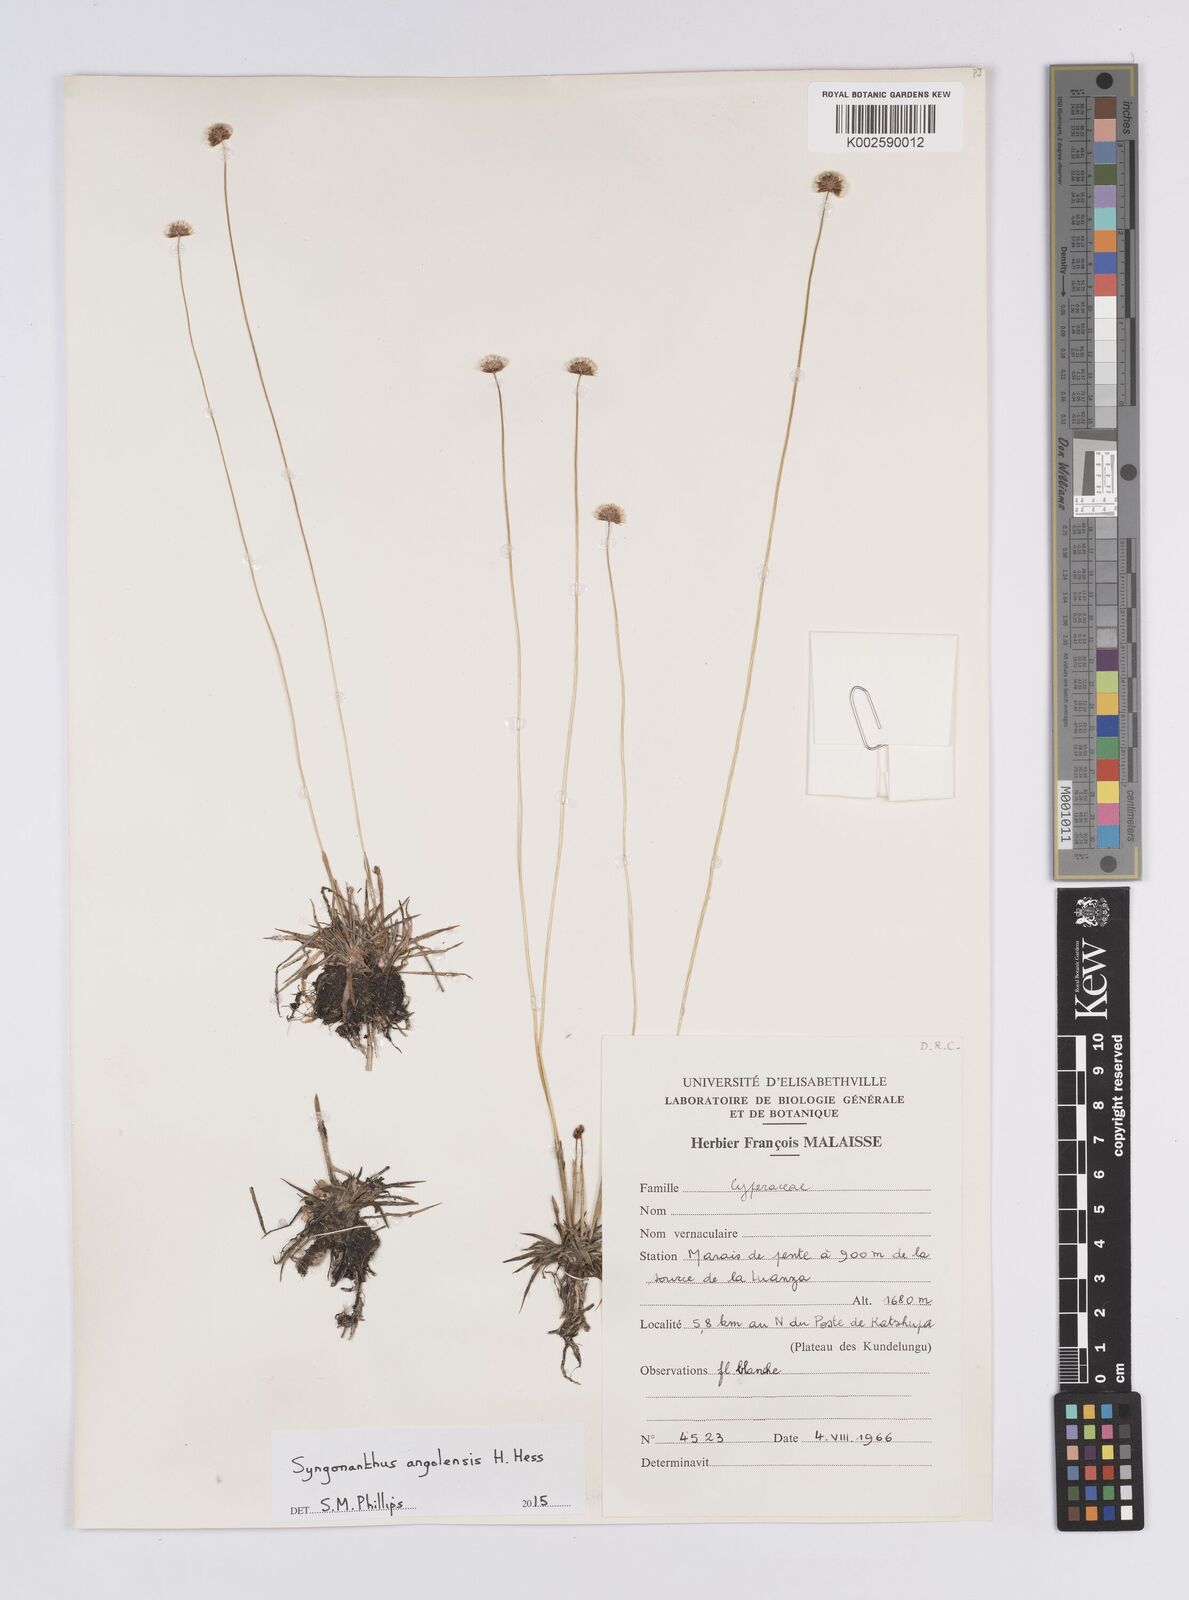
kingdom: Plantae
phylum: Tracheophyta
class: Liliopsida
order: Poales
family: Eriocaulaceae
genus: Syngonanthus
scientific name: Syngonanthus angolensis
